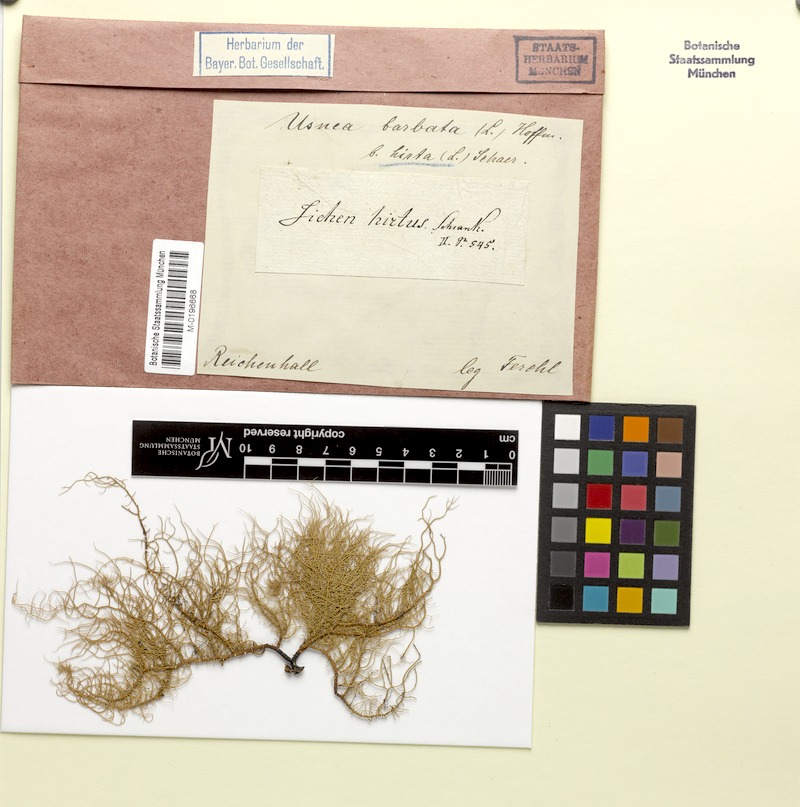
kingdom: Fungi
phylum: Ascomycota
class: Lecanoromycetes
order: Lecanorales
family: Parmeliaceae
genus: Usnea
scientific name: Usnea hirta
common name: Bristly beard lichen
